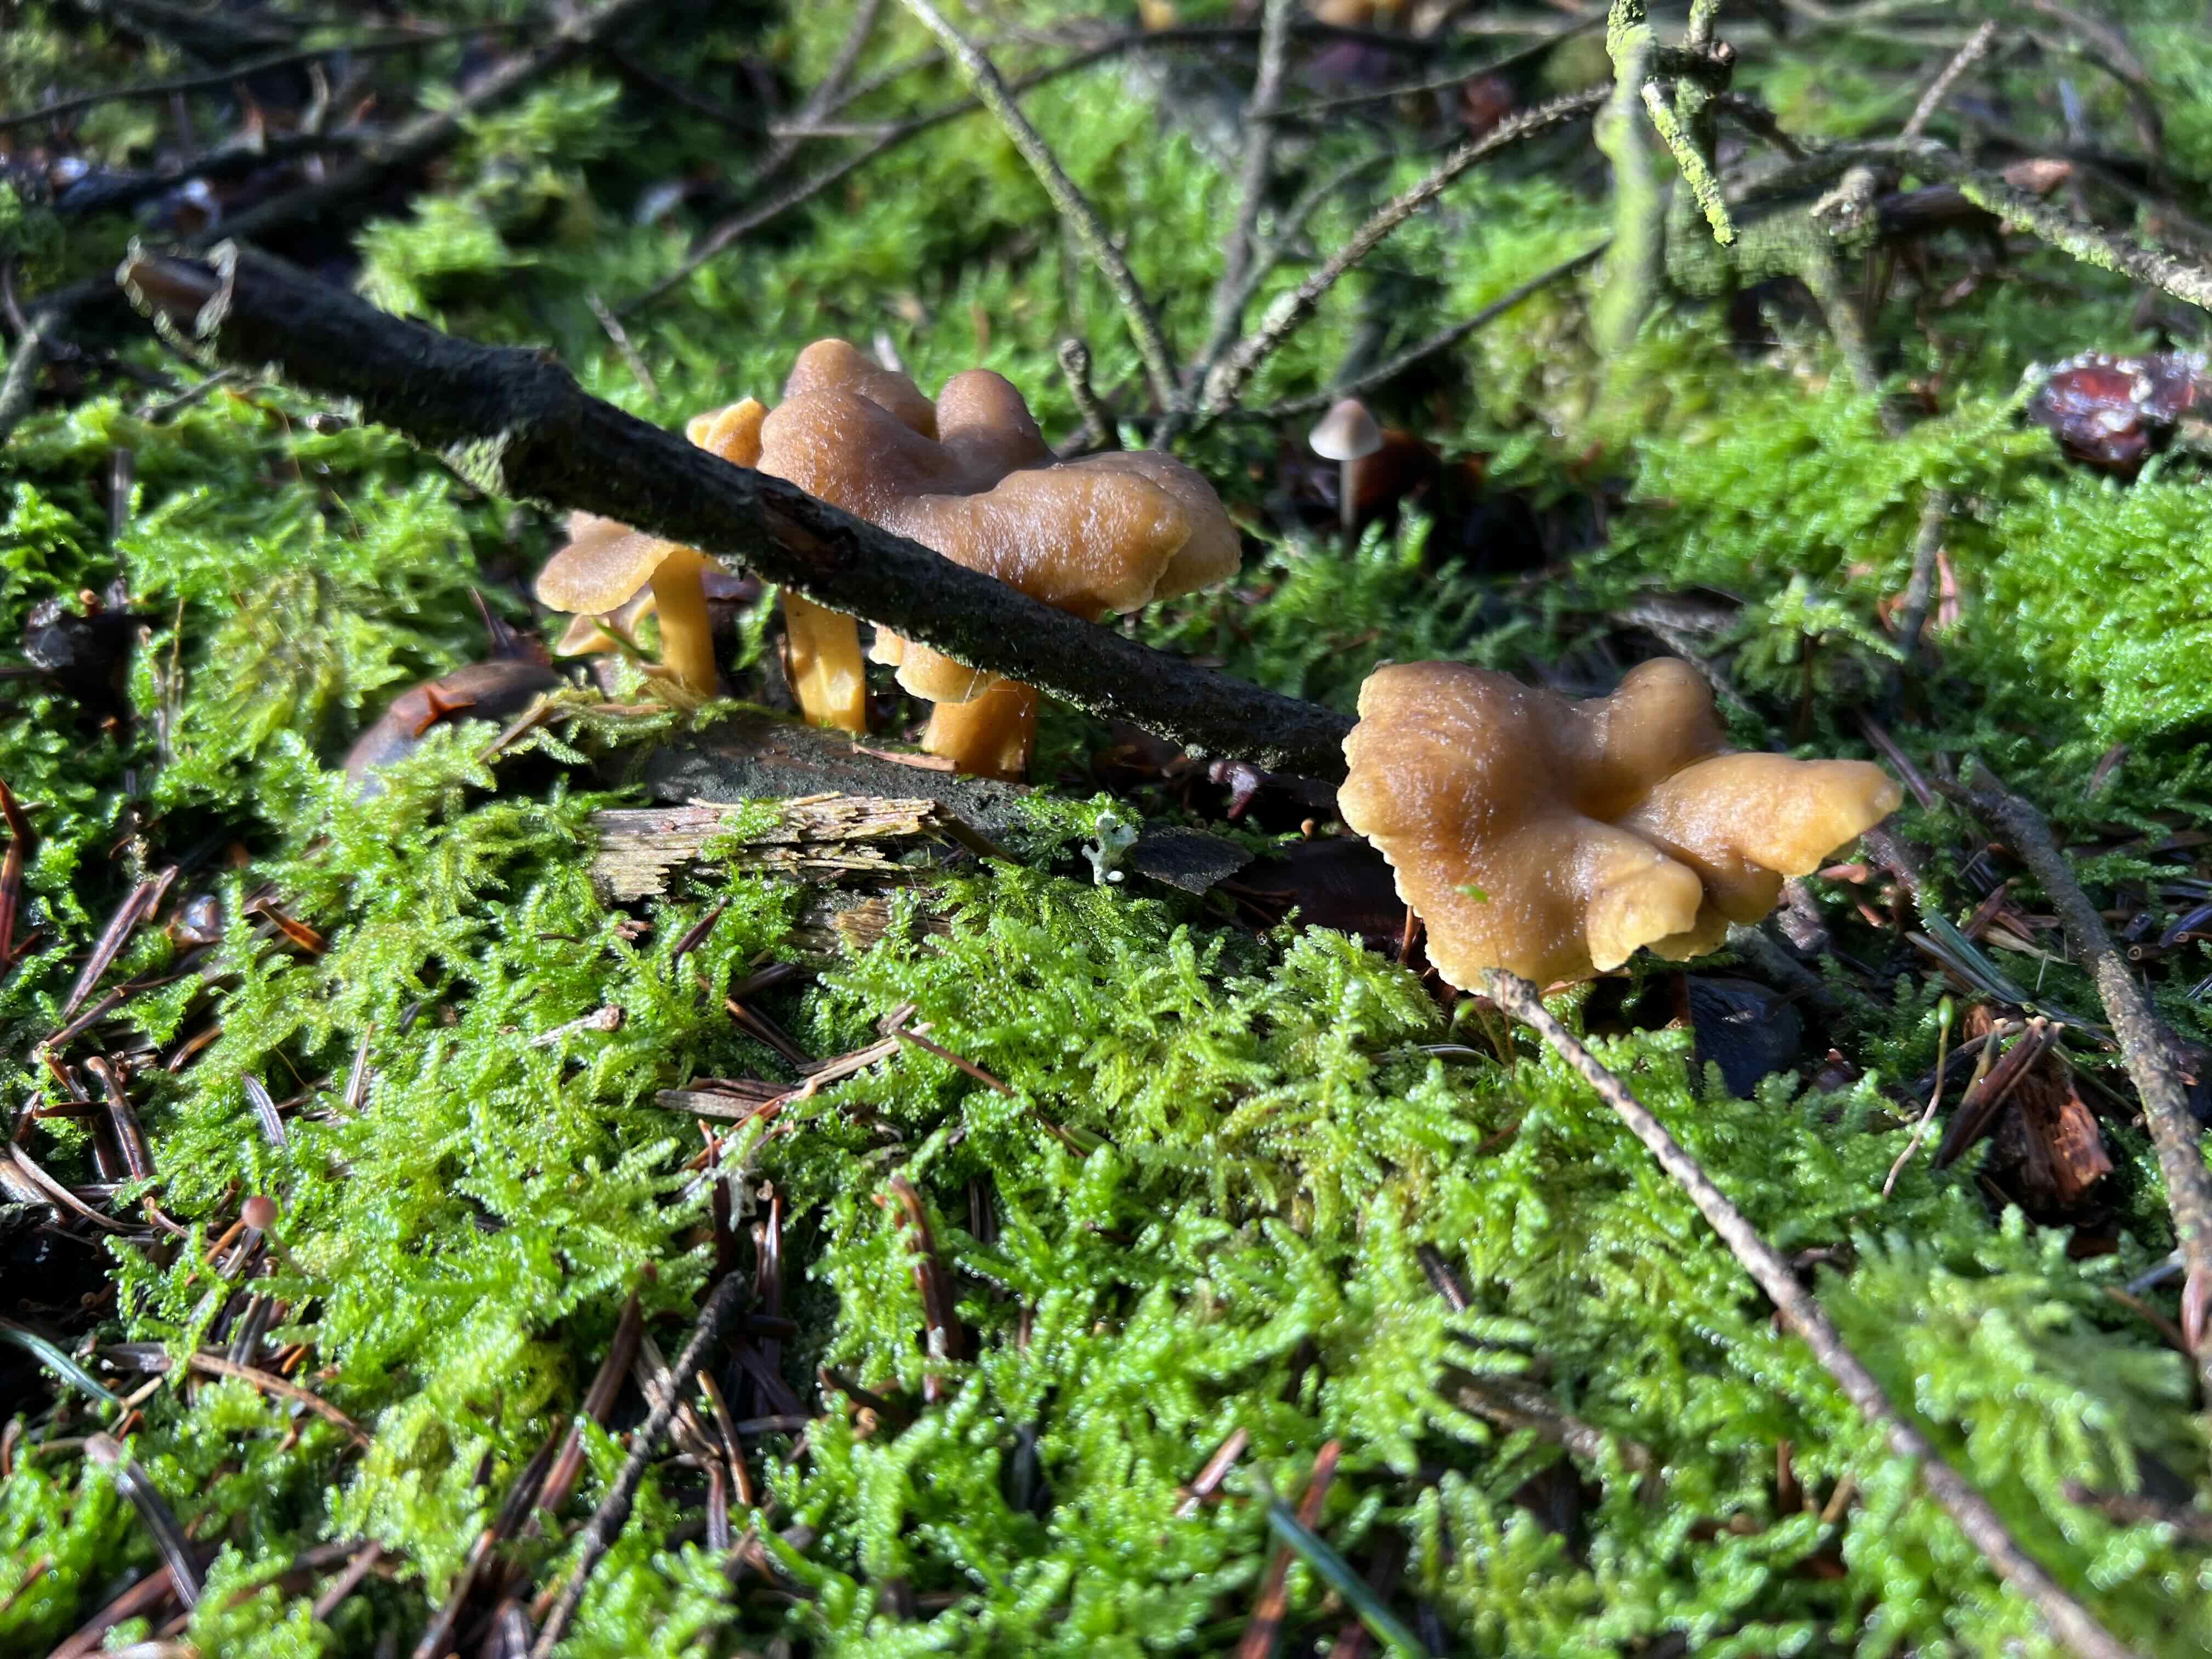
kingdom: Fungi
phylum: Basidiomycota
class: Agaricomycetes
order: Cantharellales
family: Hydnaceae
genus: Craterellus
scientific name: Craterellus tubaeformis
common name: tragt-kantarel
